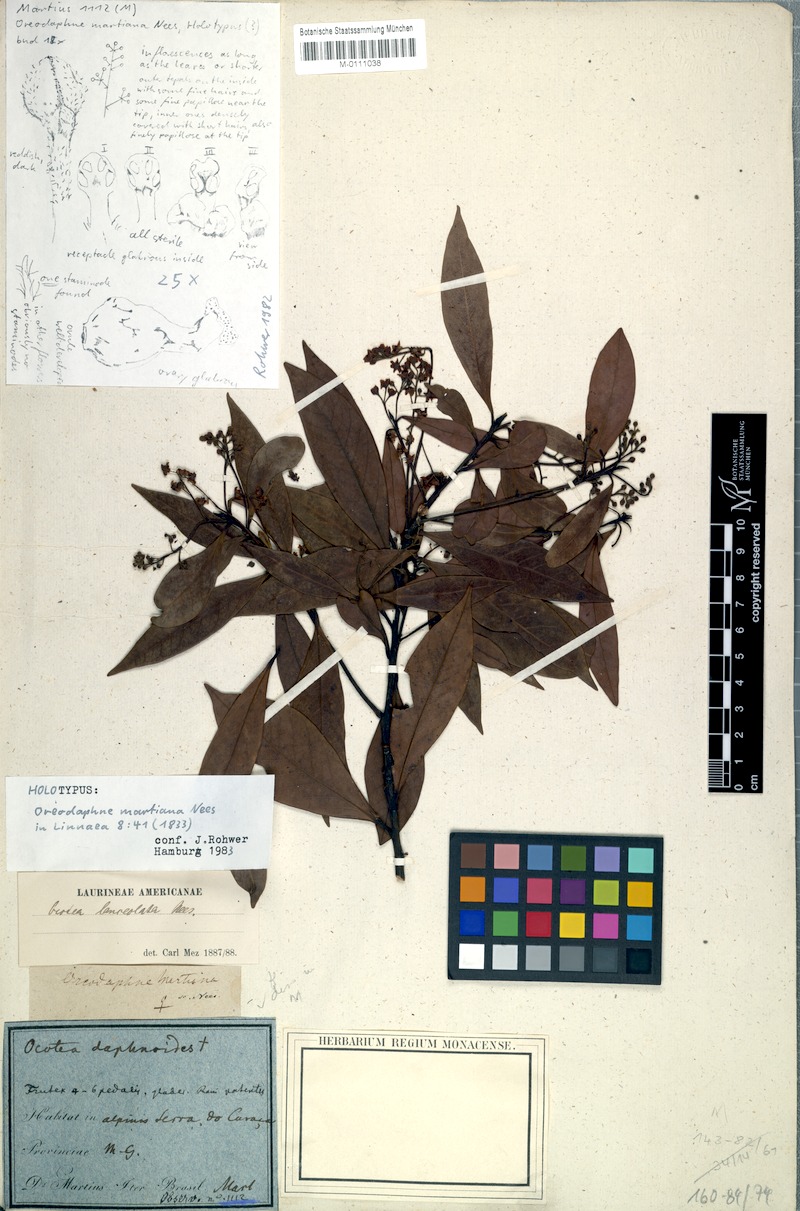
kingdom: Plantae
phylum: Tracheophyta
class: Magnoliopsida
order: Laurales
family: Lauraceae
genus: Ocotea
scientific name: Ocotea lancifolia
